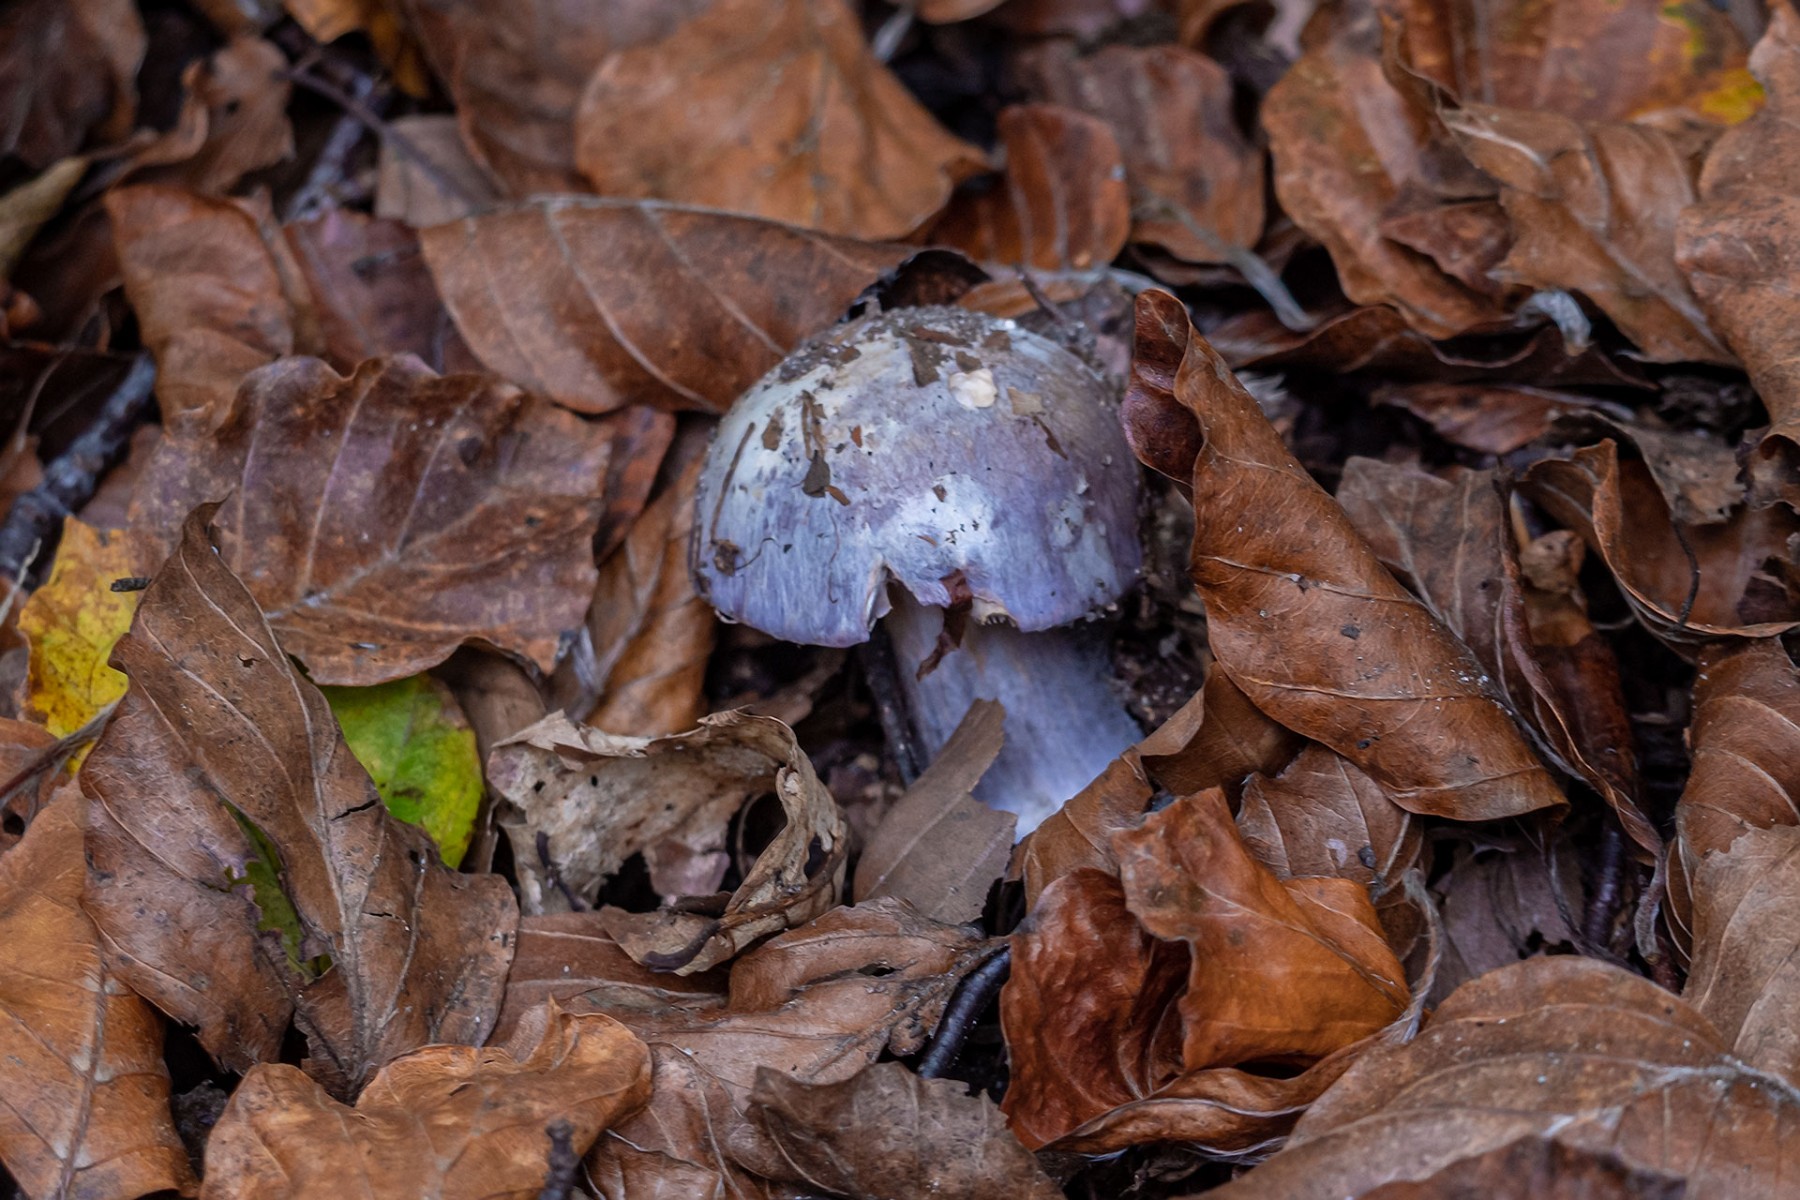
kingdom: Fungi
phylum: Basidiomycota
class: Agaricomycetes
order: Agaricales
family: Cortinariaceae
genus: Cortinarius
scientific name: Cortinarius caerulescens
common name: blåkødet slørhat
